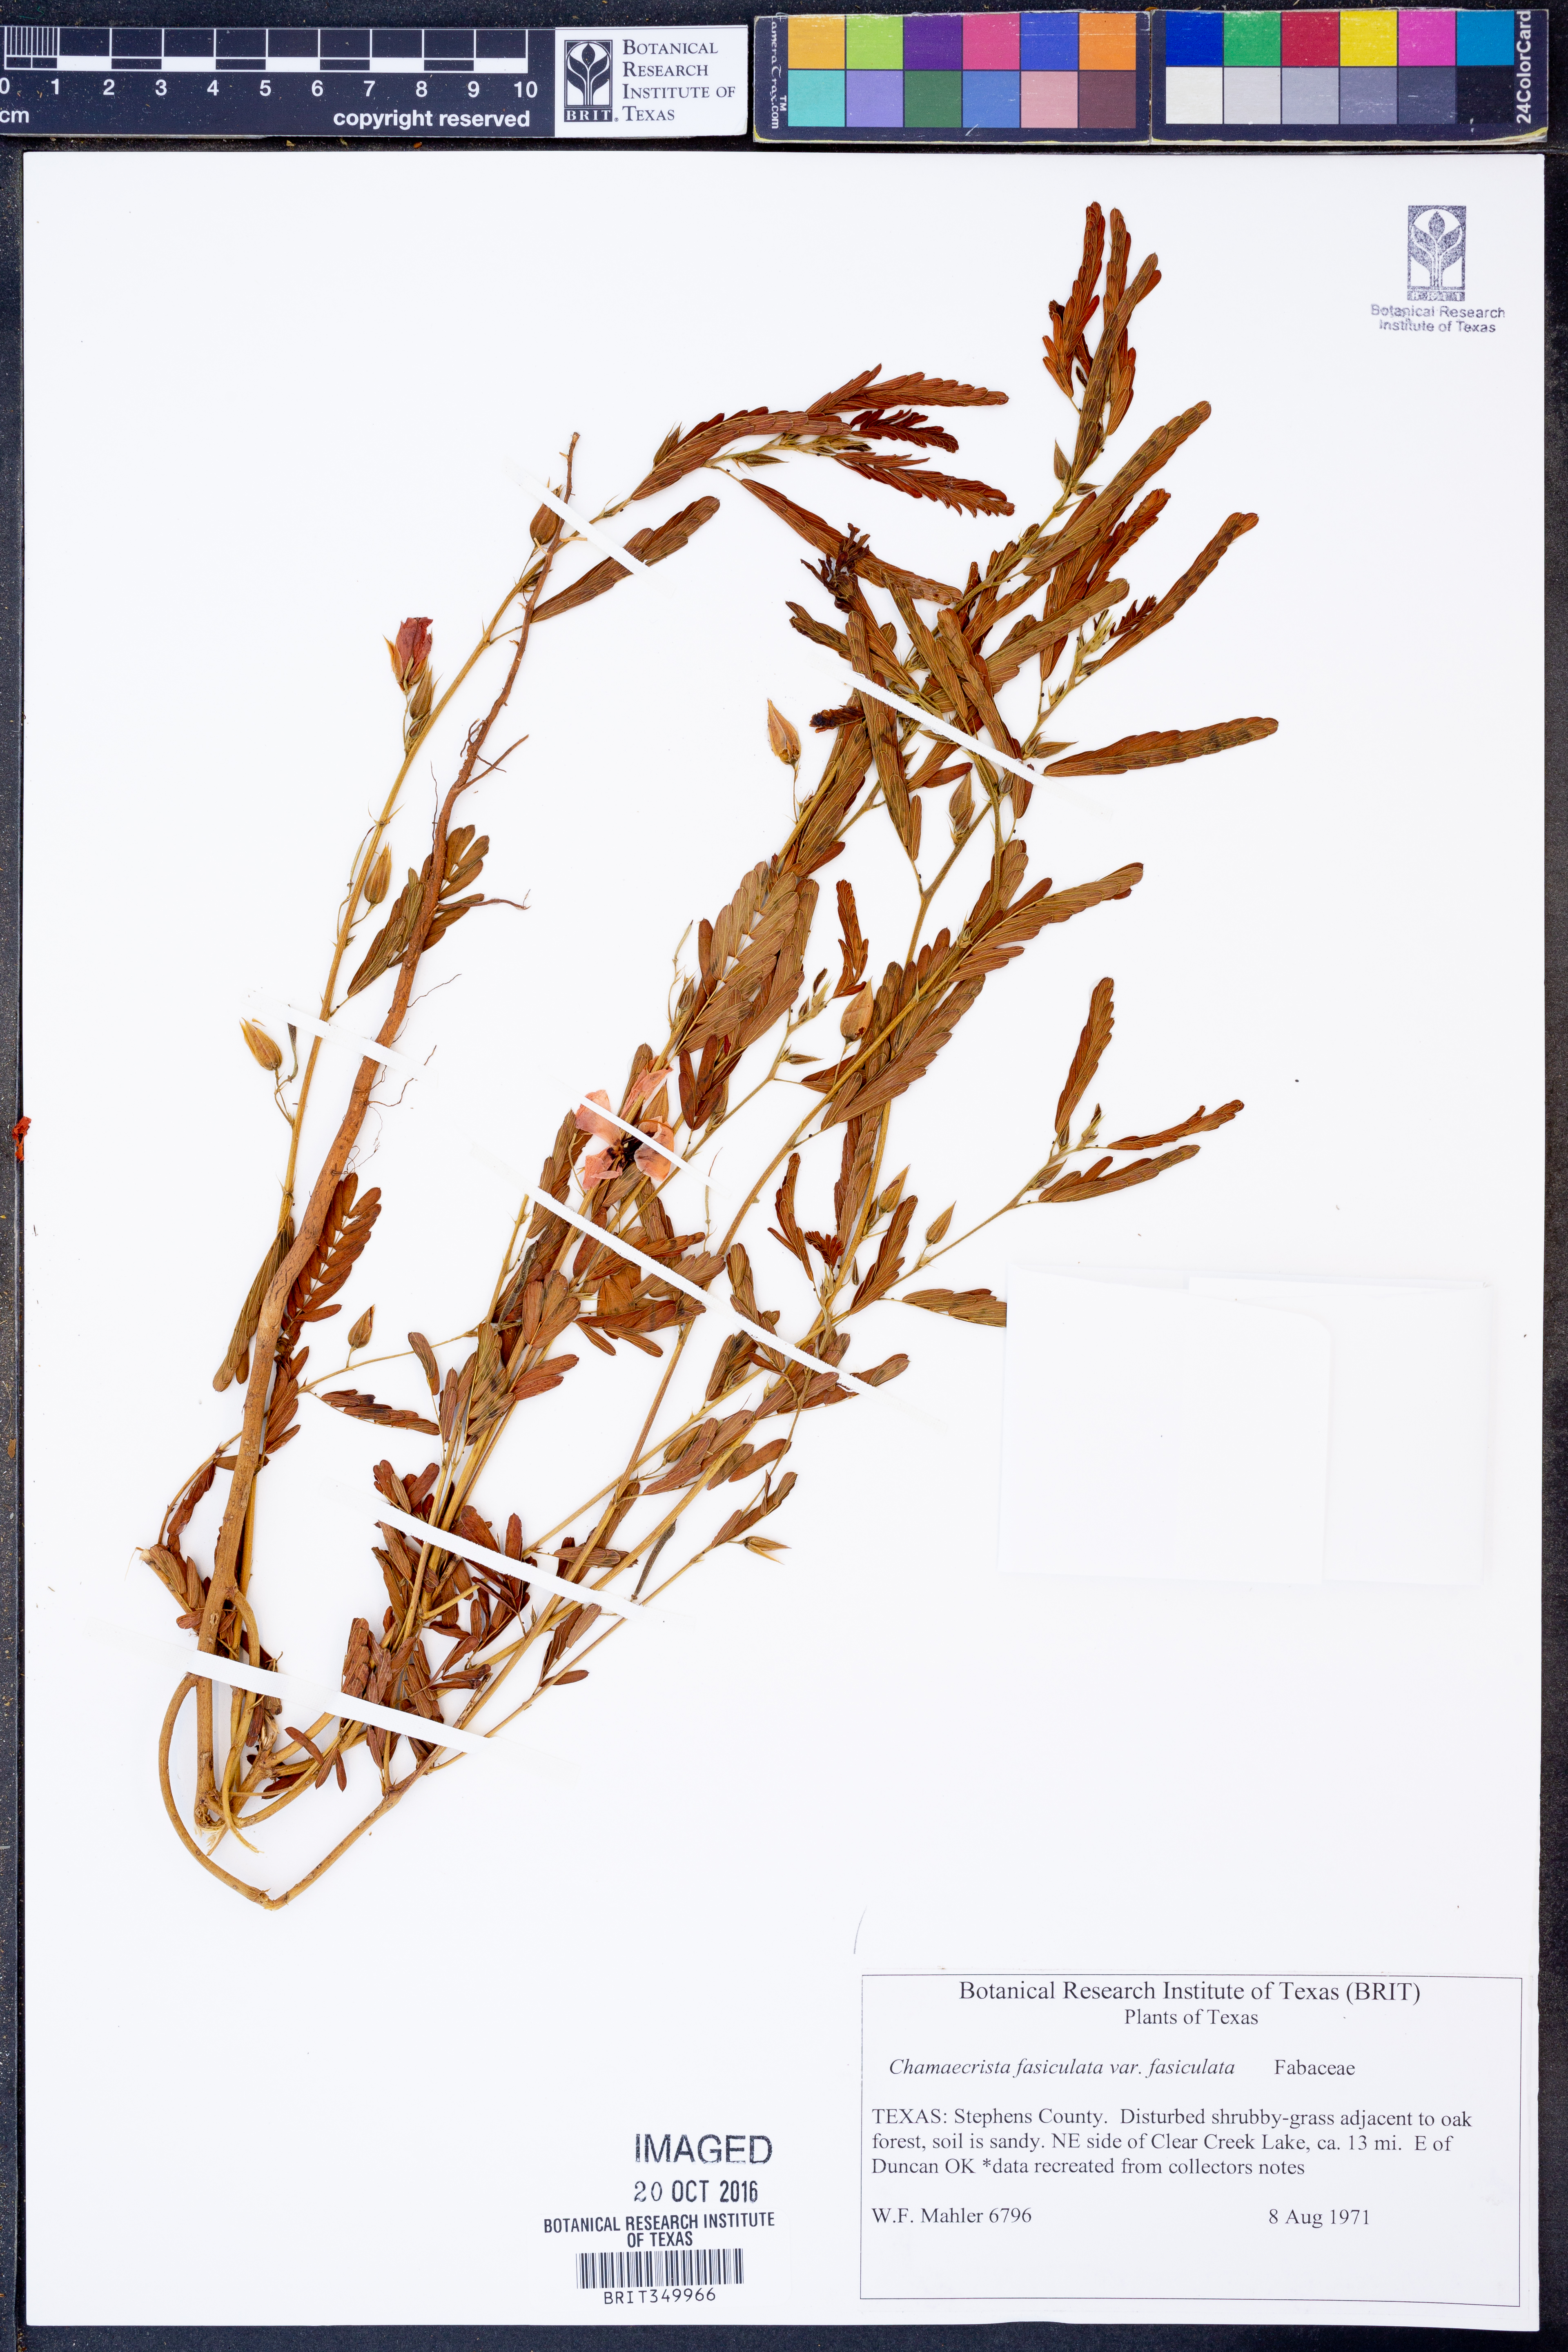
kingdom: Plantae
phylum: Tracheophyta
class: Magnoliopsida
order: Fabales
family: Fabaceae
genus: Chamaecrista
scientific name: Chamaecrista fasciculata
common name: Golden cassia
